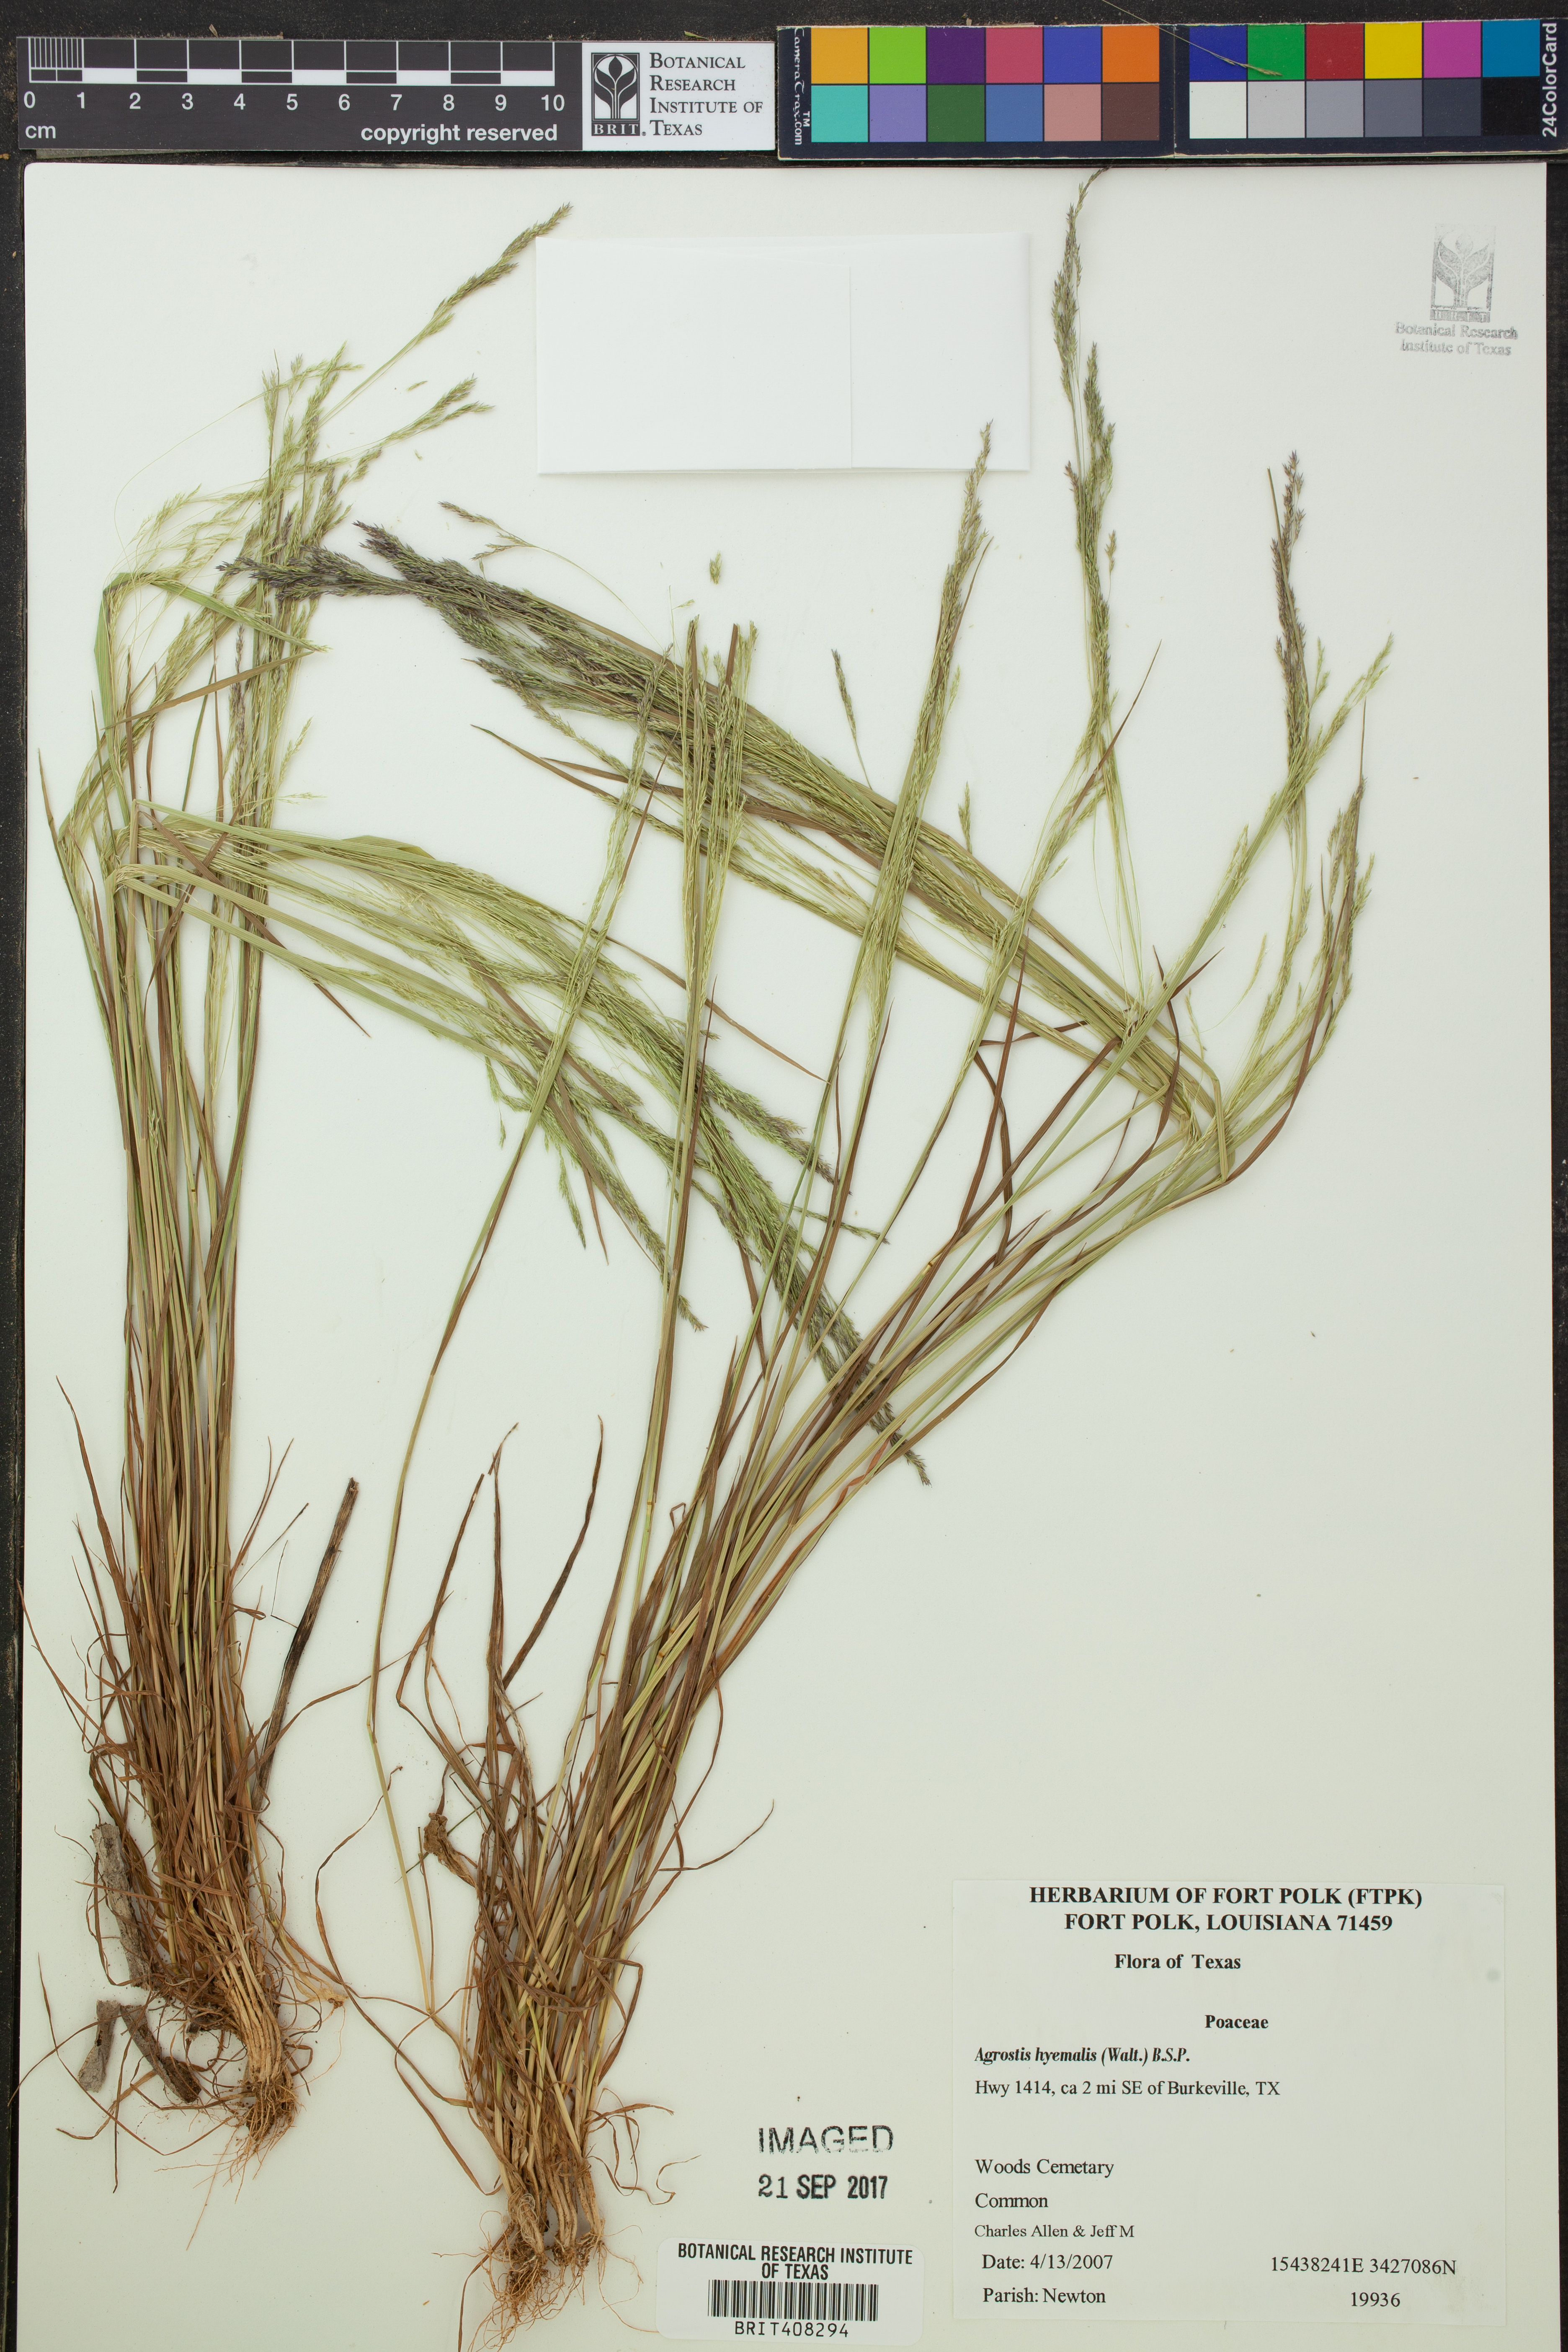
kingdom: Plantae
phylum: Tracheophyta
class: Liliopsida
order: Poales
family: Poaceae
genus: Agrostis
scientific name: Agrostis hyemalis
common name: Small bent
